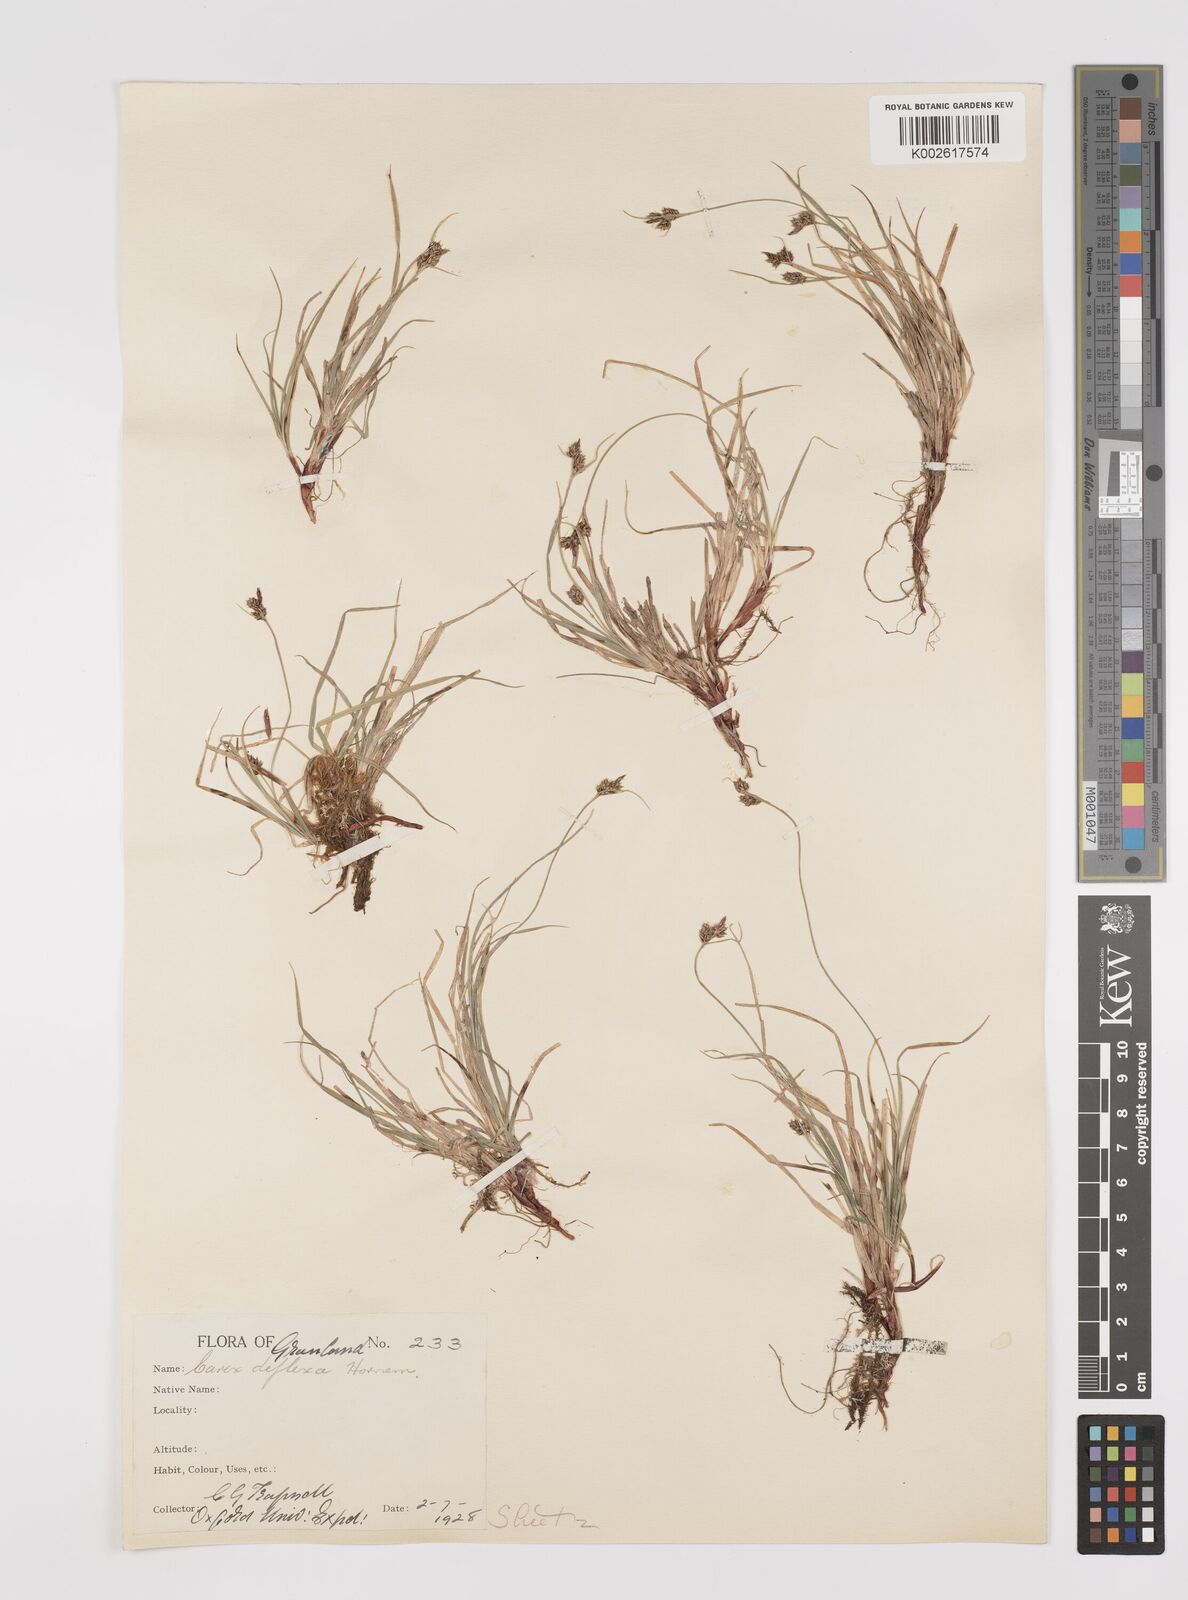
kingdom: Plantae
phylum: Tracheophyta
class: Liliopsida
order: Poales
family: Cyperaceae
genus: Carex
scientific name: Carex deflexa
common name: Bent northern sedge
